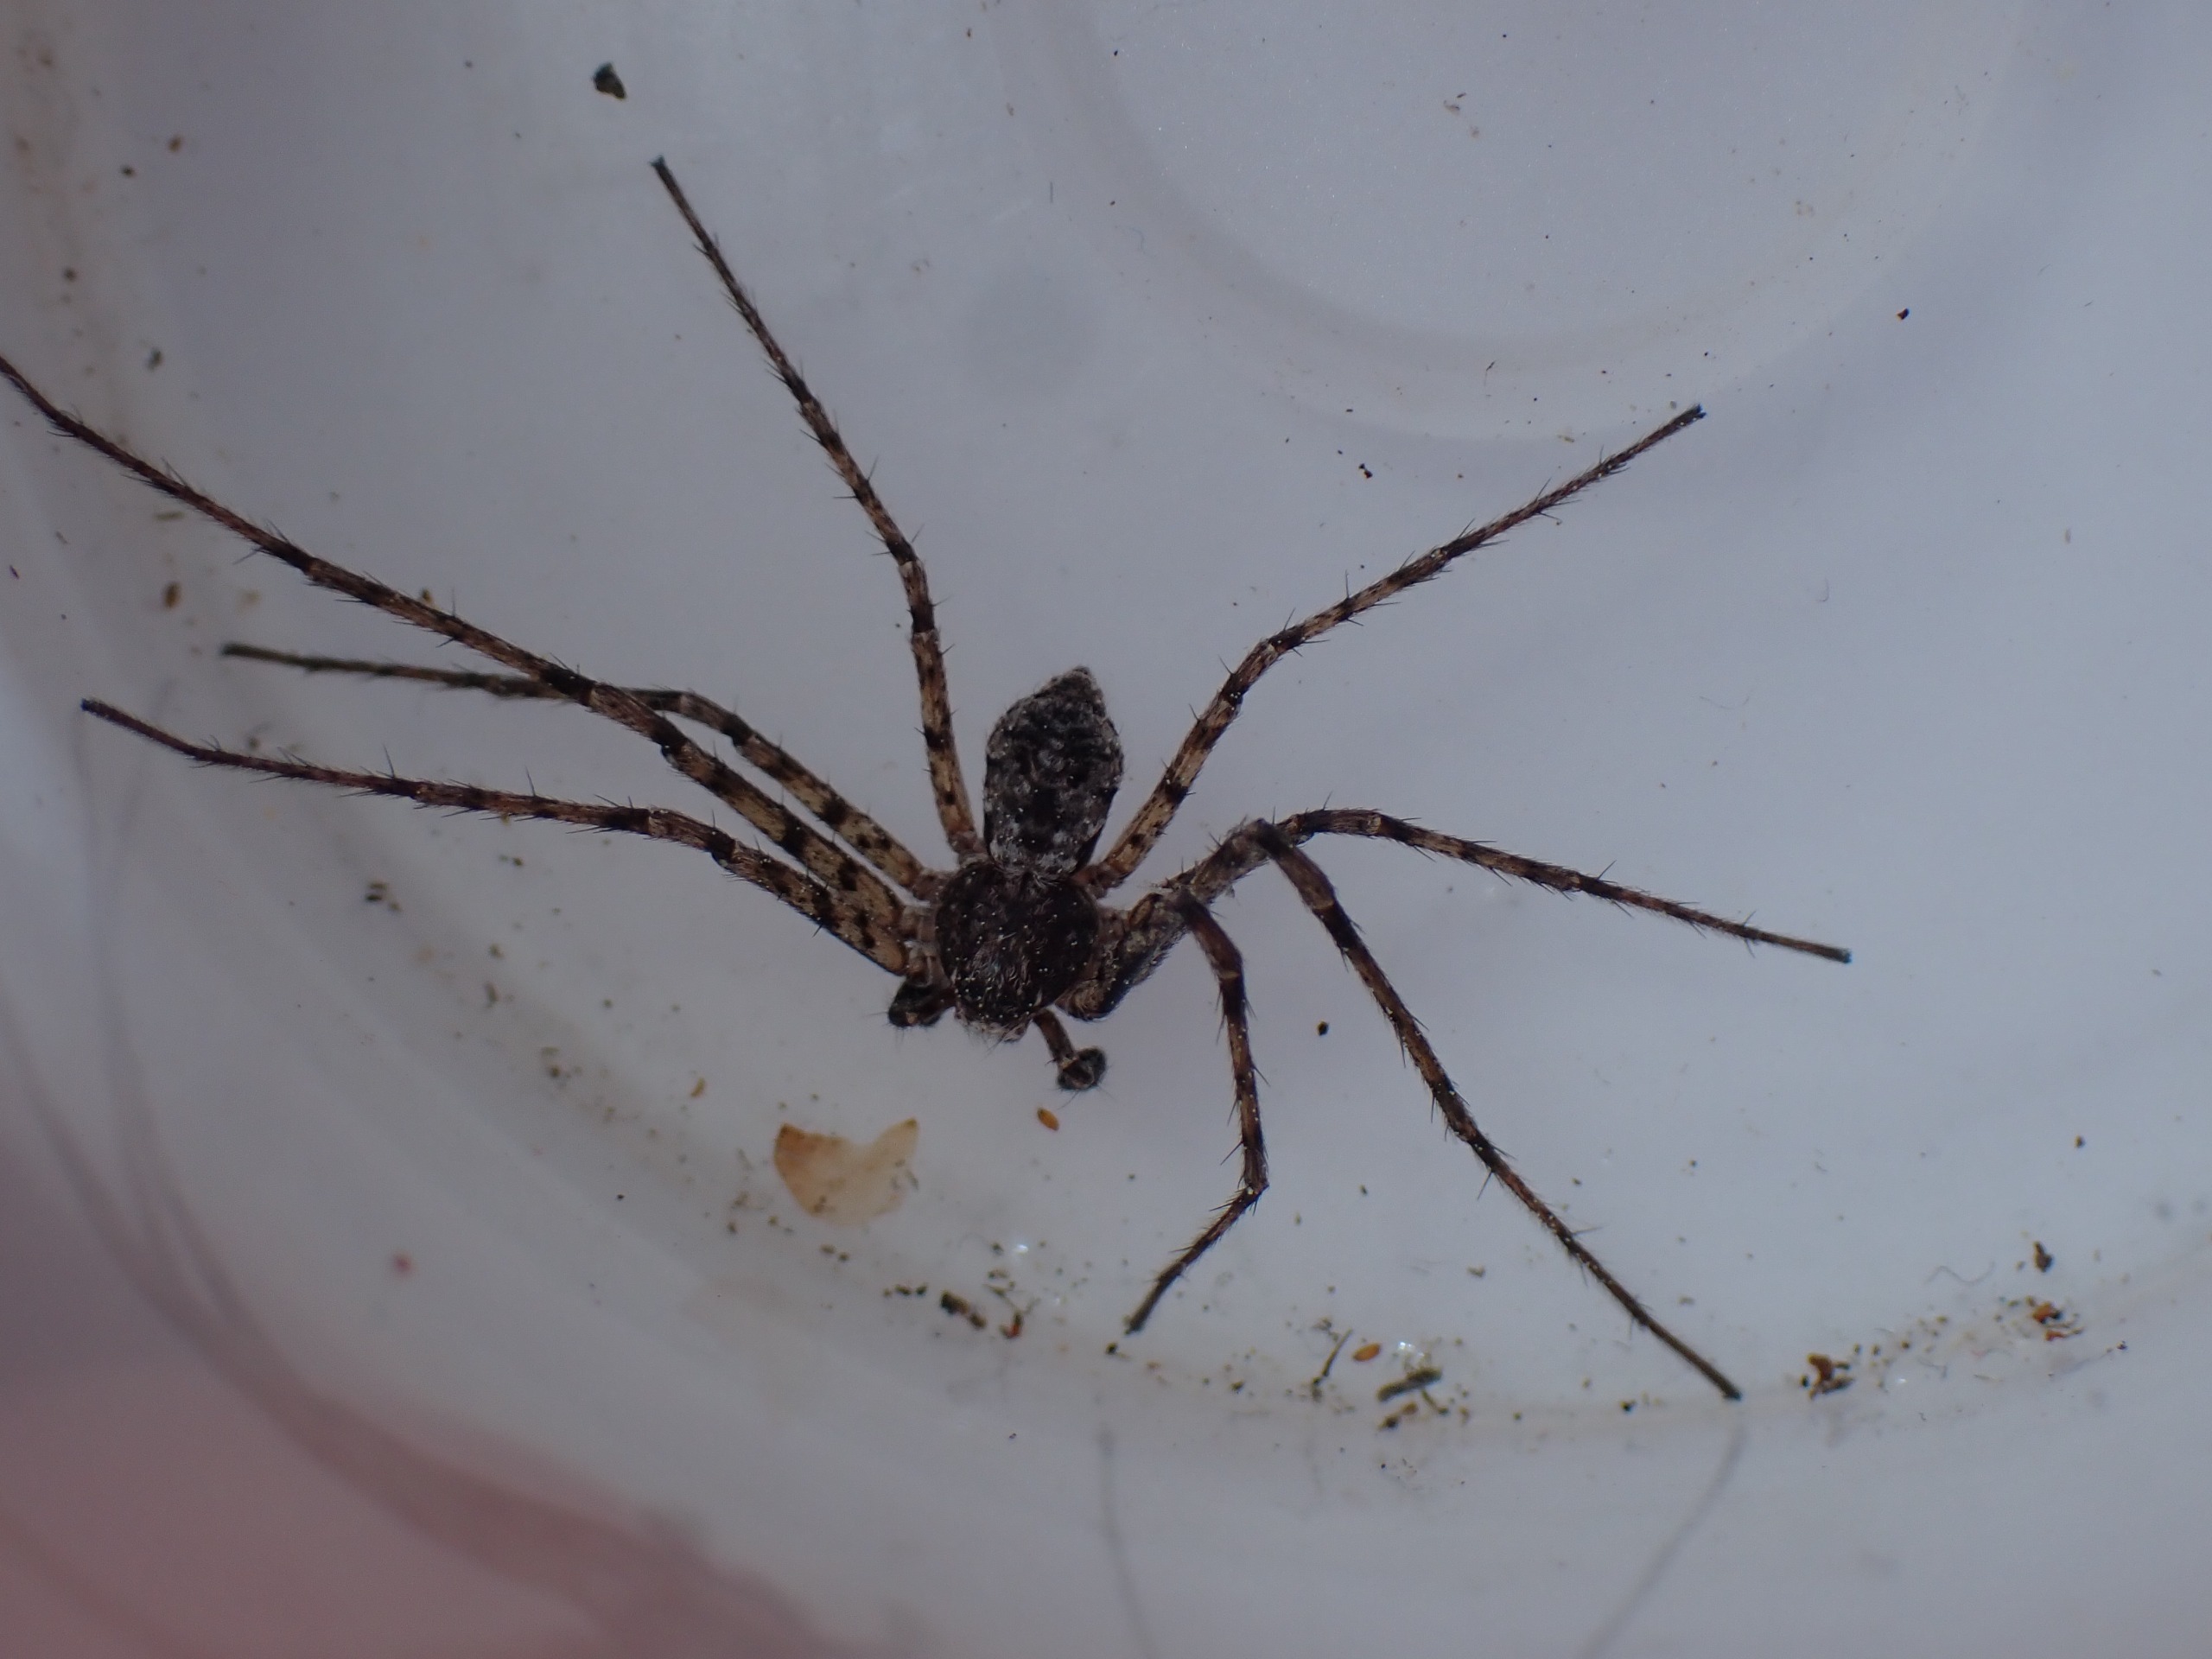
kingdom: Animalia
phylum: Arthropoda
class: Arachnida
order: Araneae
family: Philodromidae
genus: Philodromus
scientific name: Philodromus margaritatus
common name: Dødningehoved-edderkop
